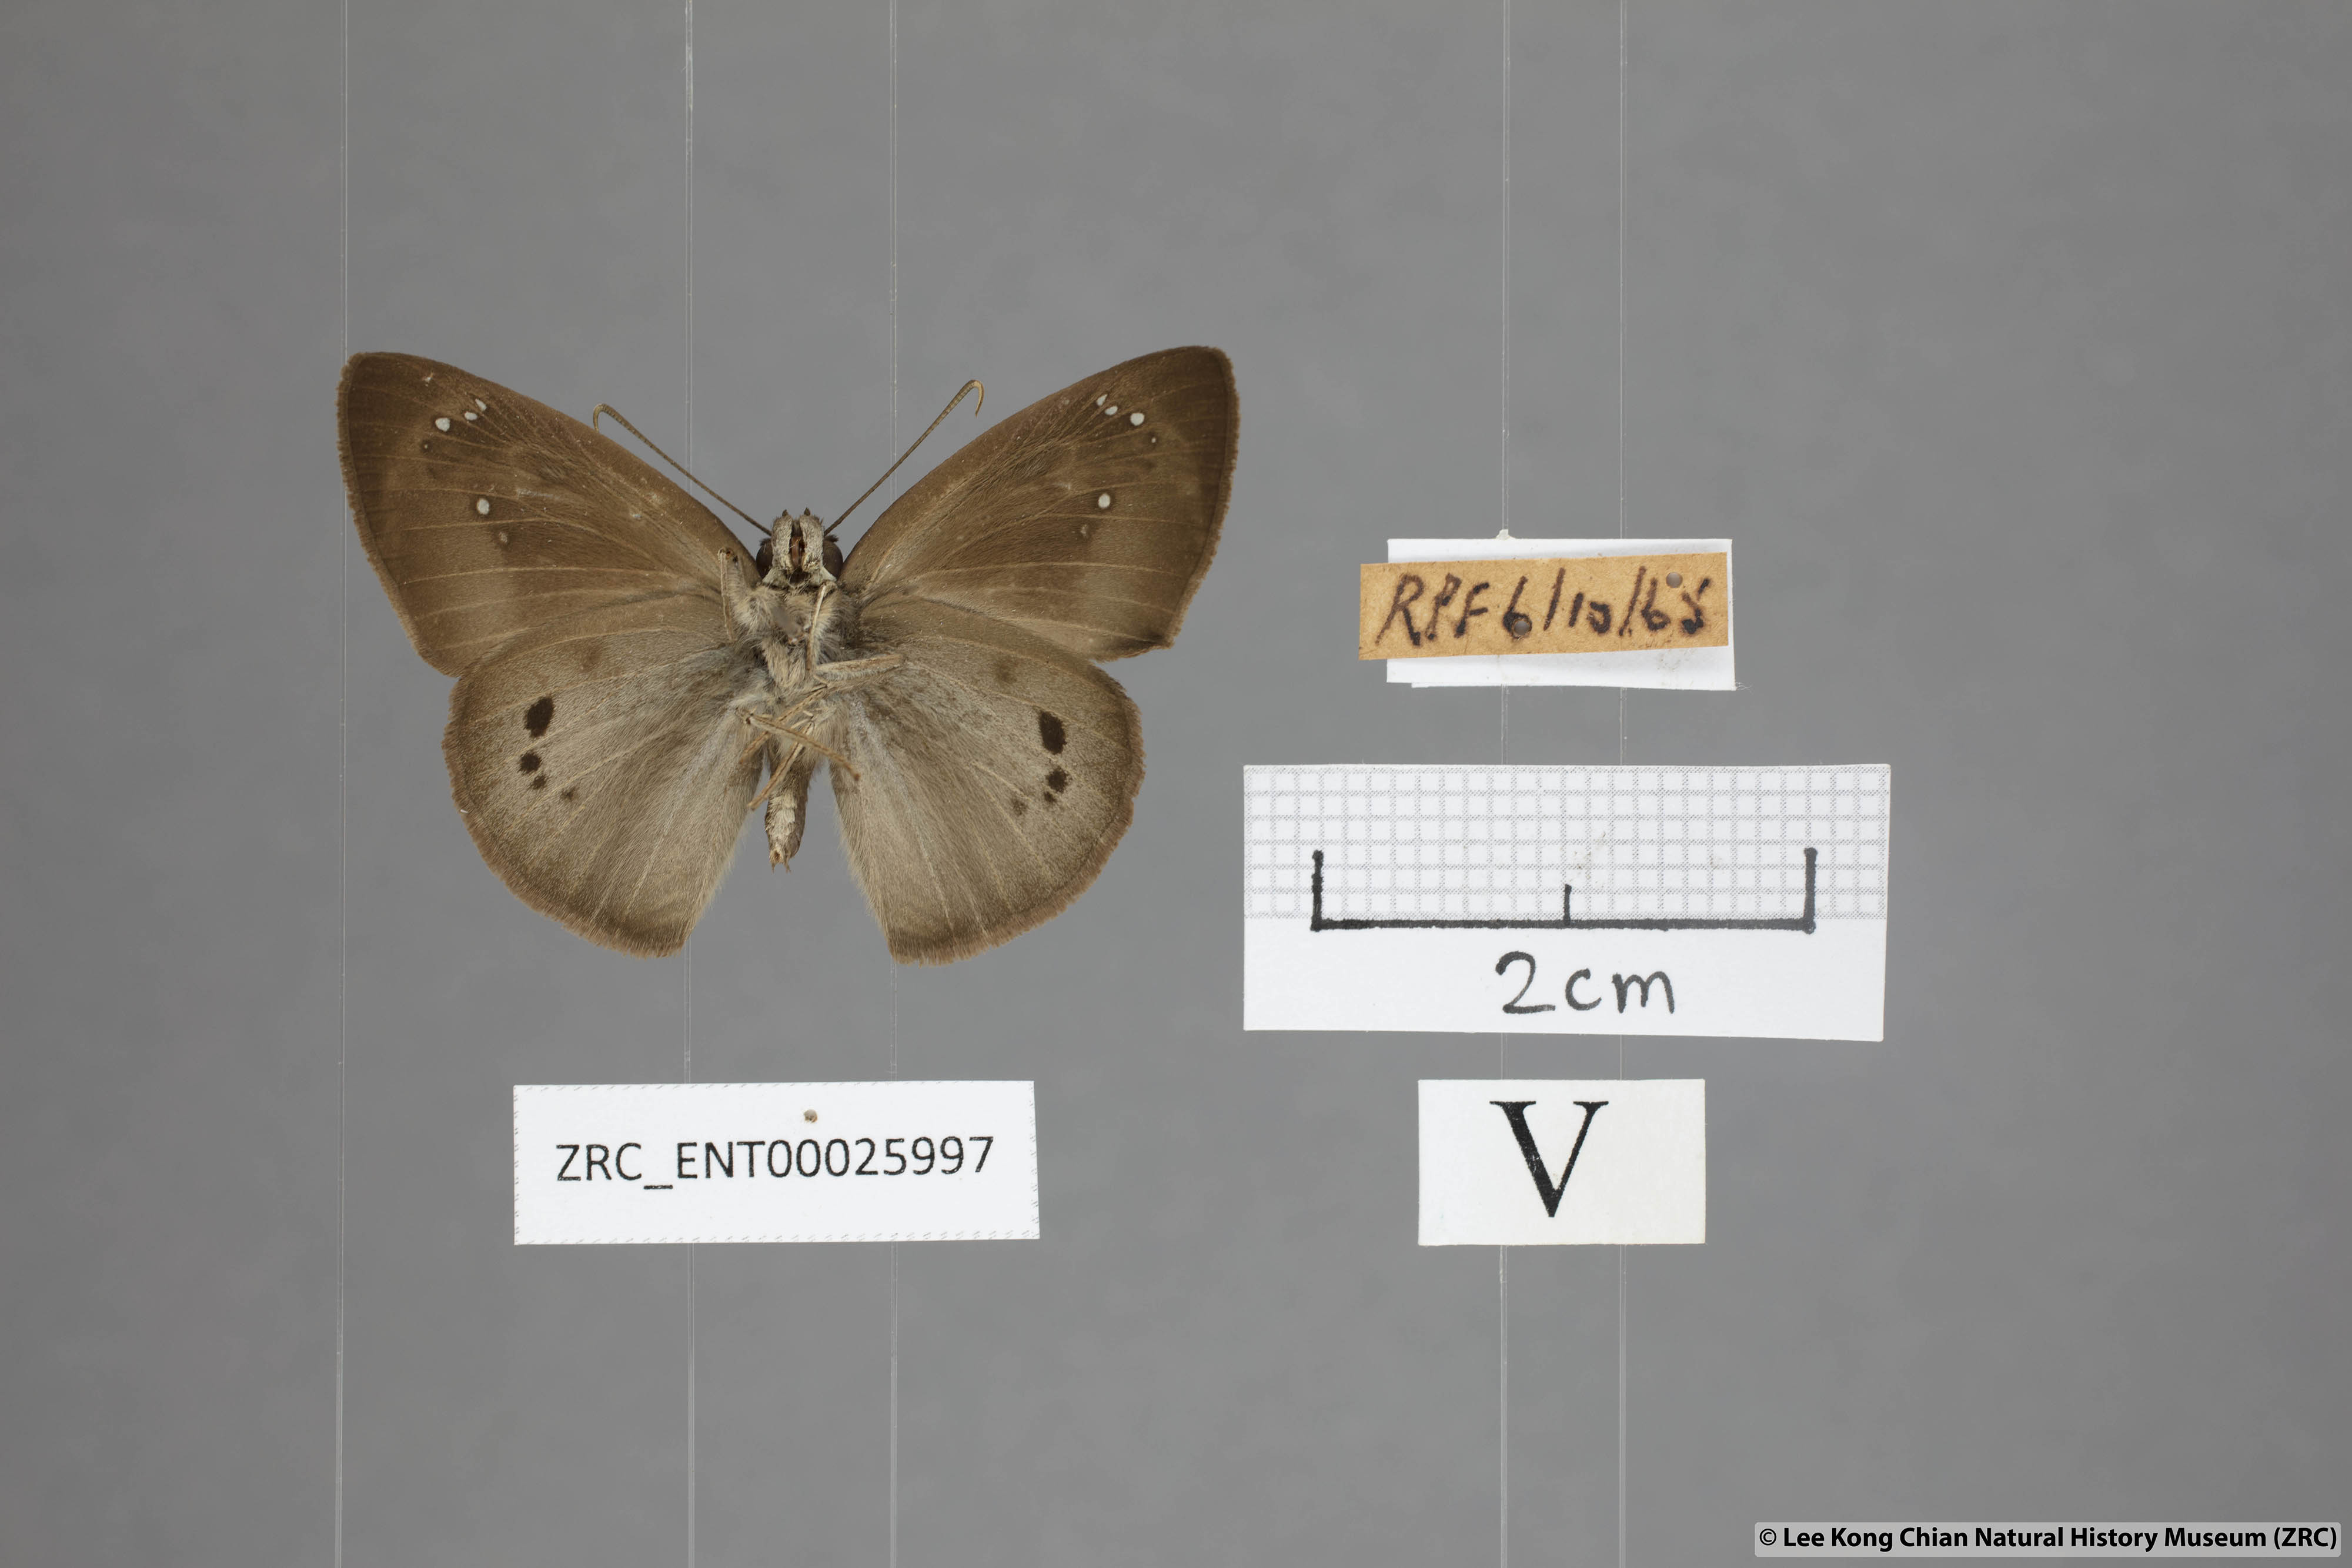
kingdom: Animalia
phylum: Arthropoda
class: Insecta
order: Lepidoptera
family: Hesperiidae
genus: Tagiades
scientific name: Tagiades japetus
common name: Pied flat
